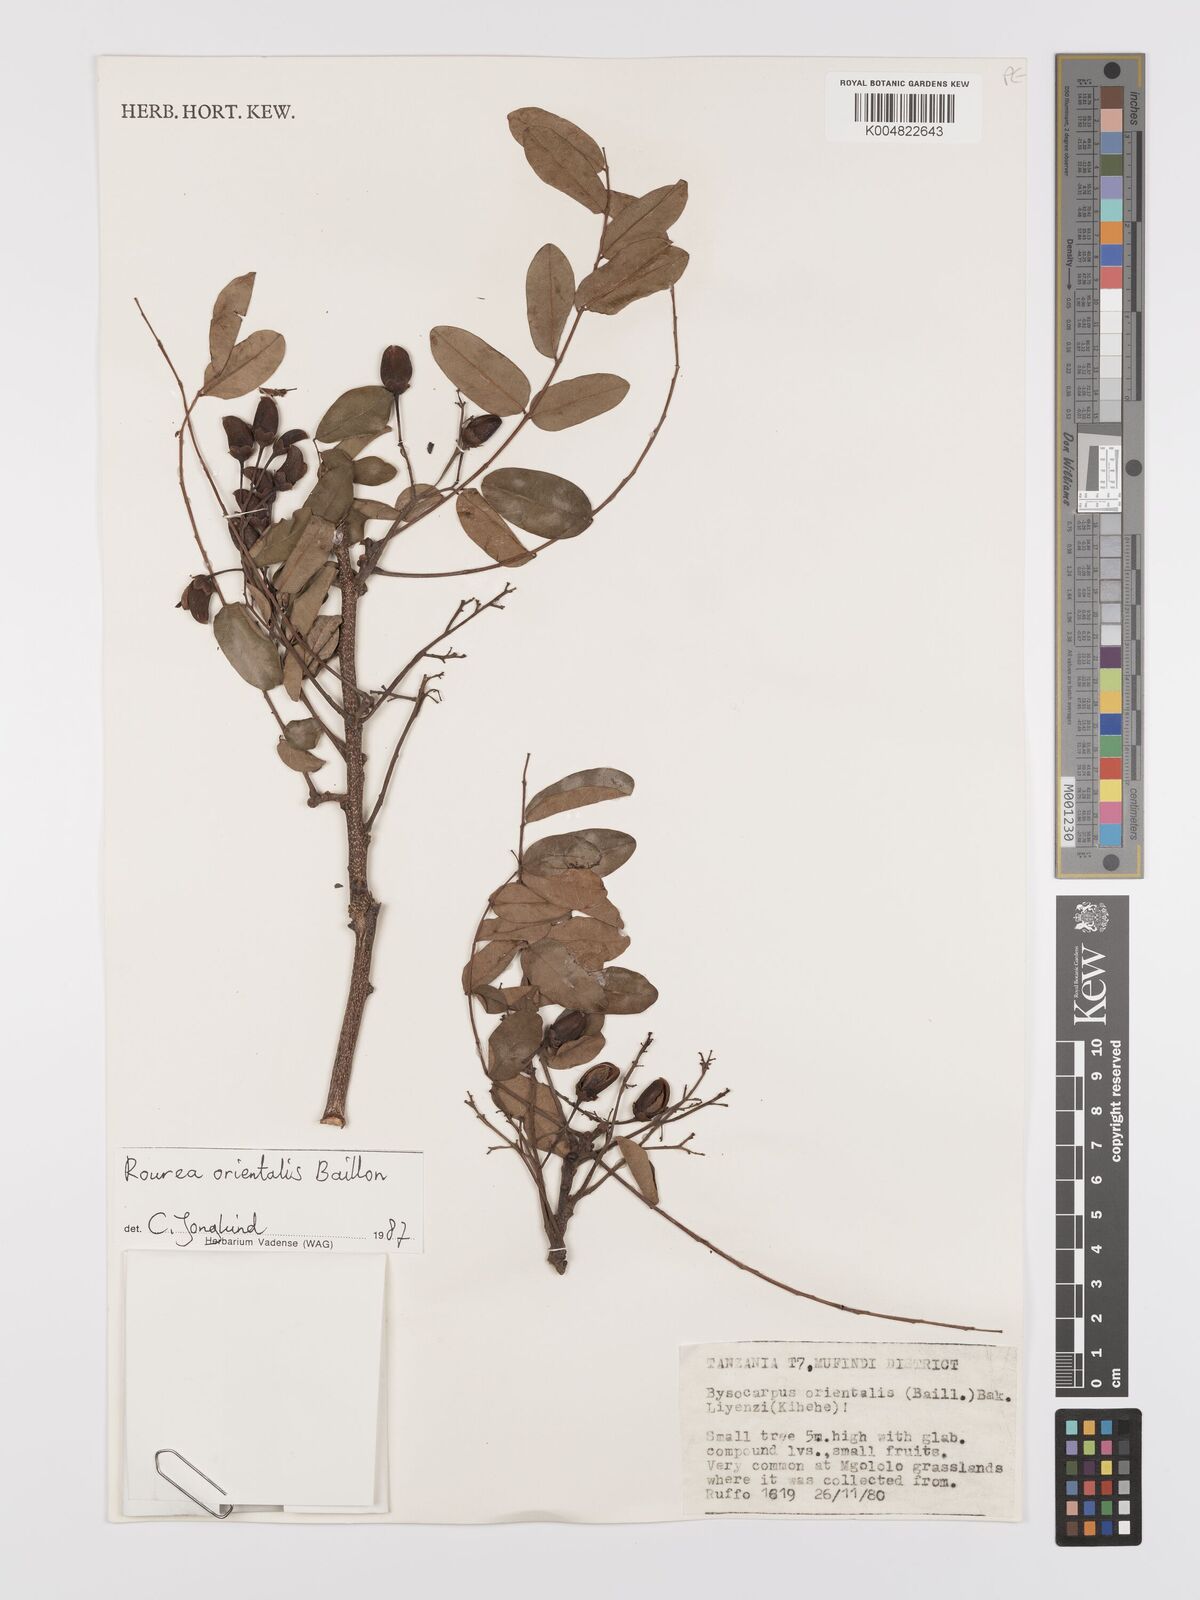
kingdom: Plantae
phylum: Tracheophyta
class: Magnoliopsida
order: Oxalidales
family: Connaraceae
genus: Rourea
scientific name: Rourea orientalis
